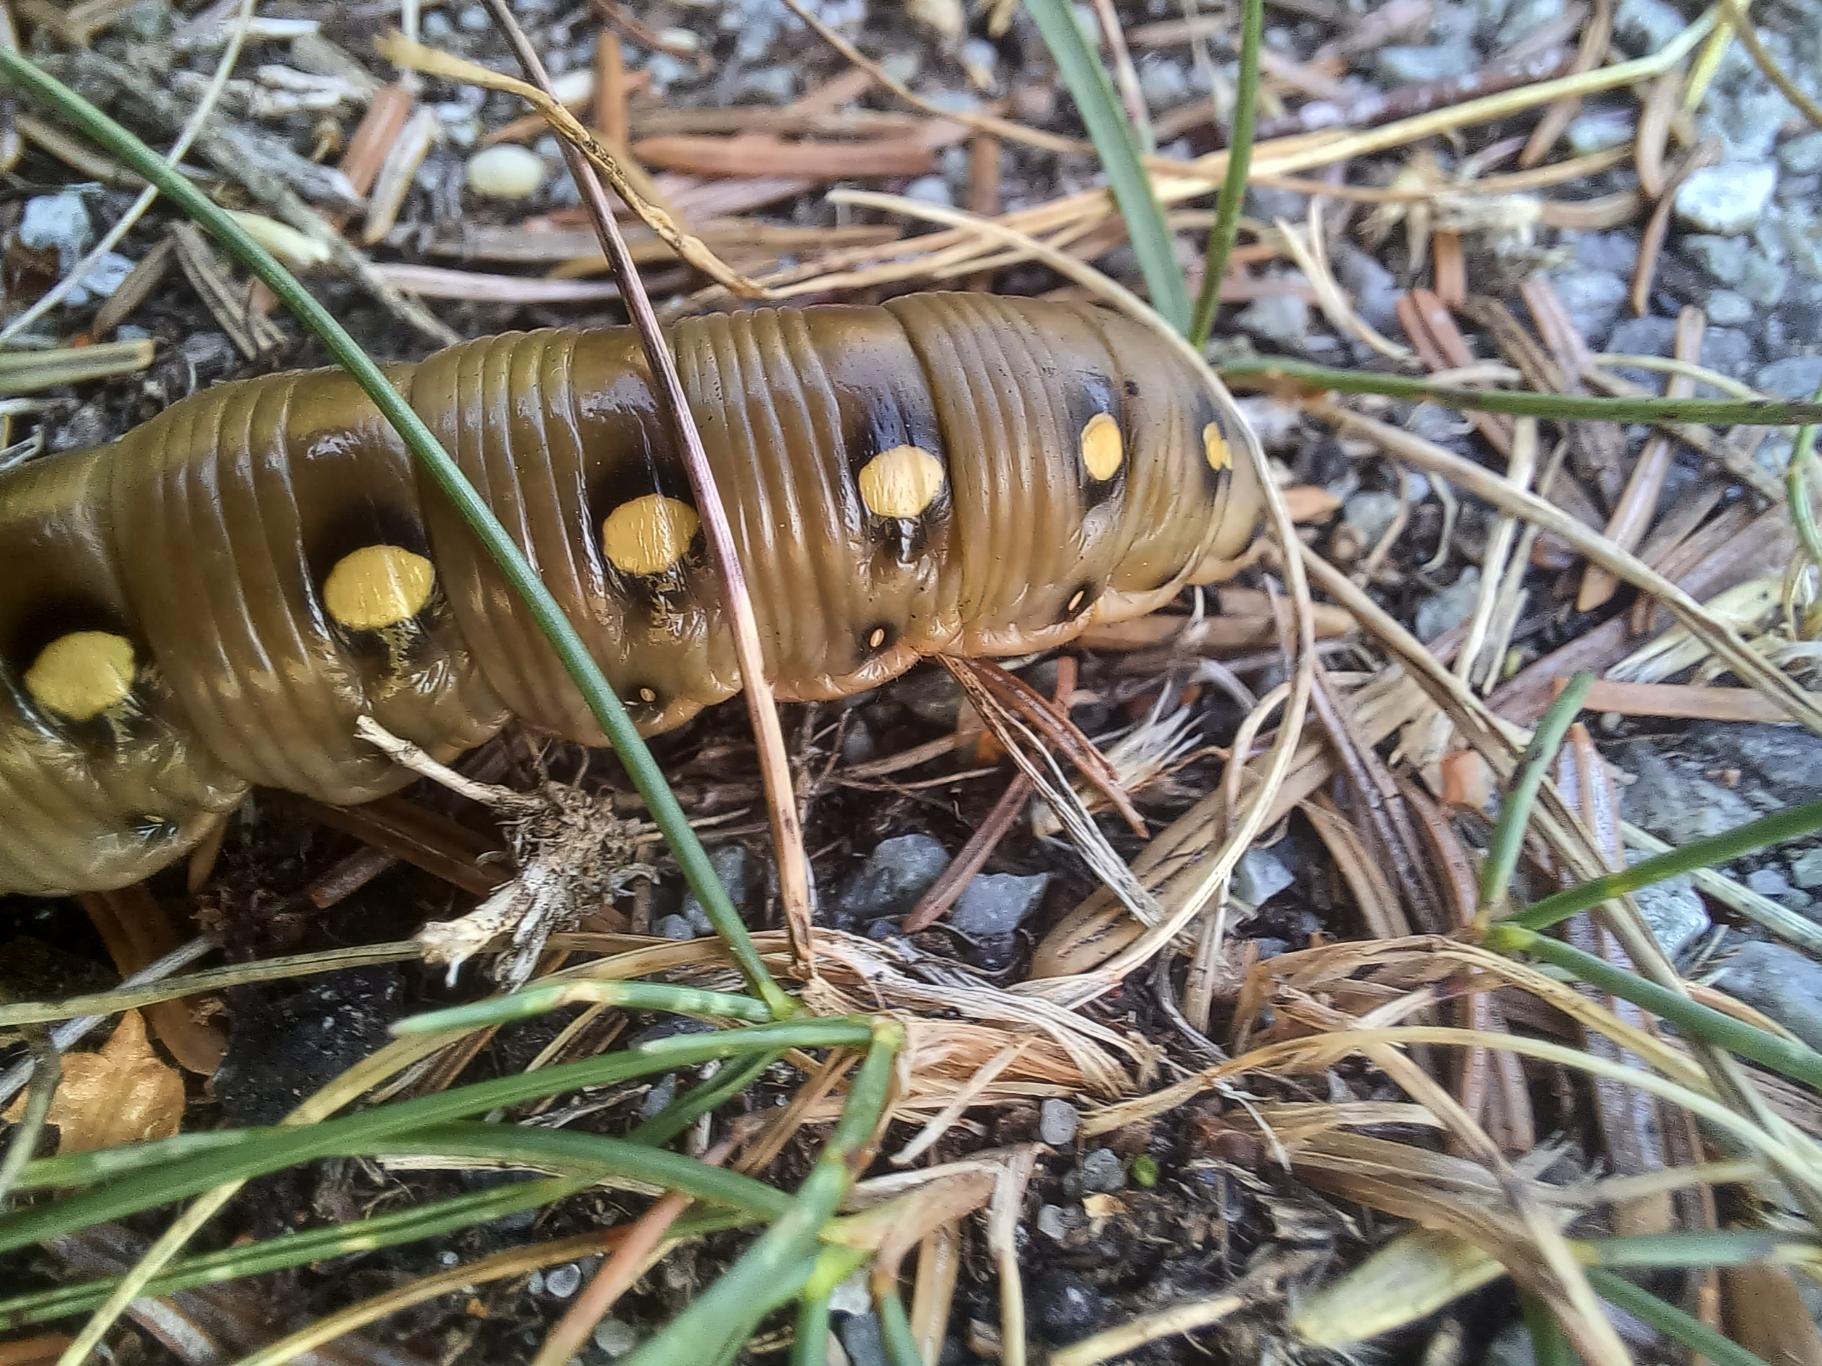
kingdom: Animalia
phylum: Arthropoda
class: Insecta
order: Lepidoptera
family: Sphingidae
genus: Hyles
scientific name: Hyles gallii
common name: Snerresværmer
